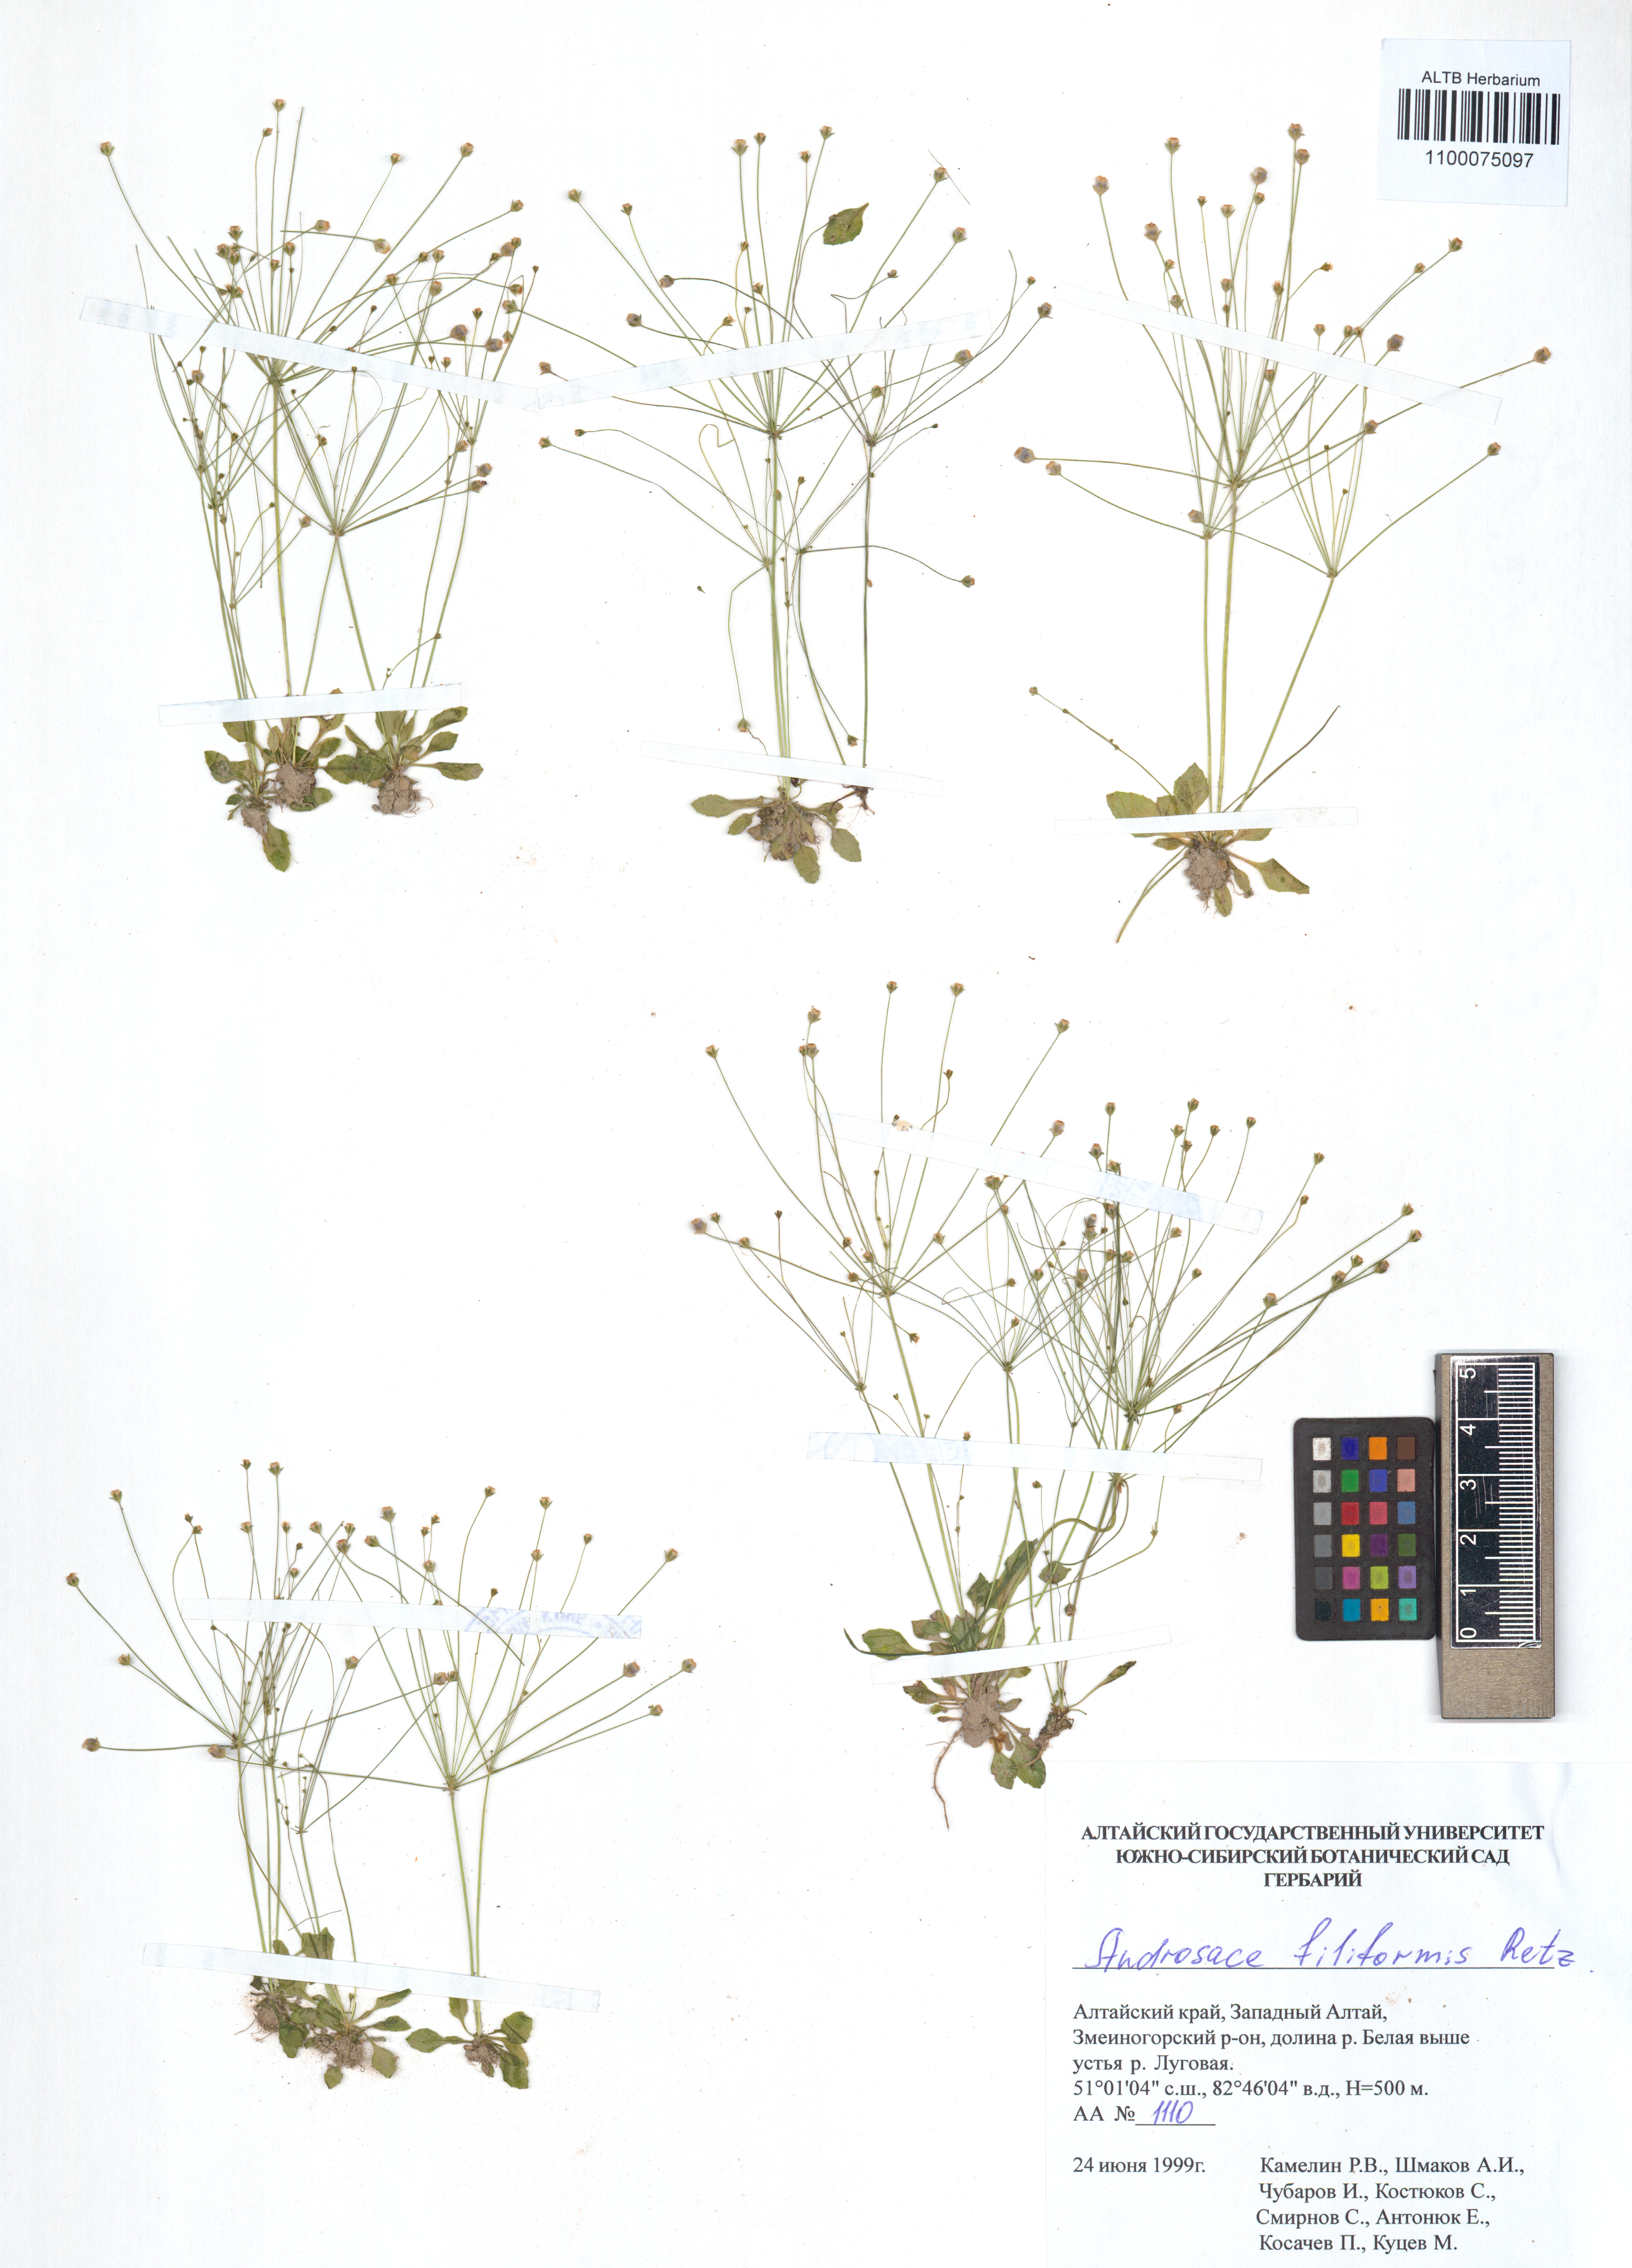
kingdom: Plantae
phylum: Tracheophyta
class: Magnoliopsida
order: Ericales
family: Primulaceae
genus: Androsace
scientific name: Androsace filiformis
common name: Filiform rock jasmine
